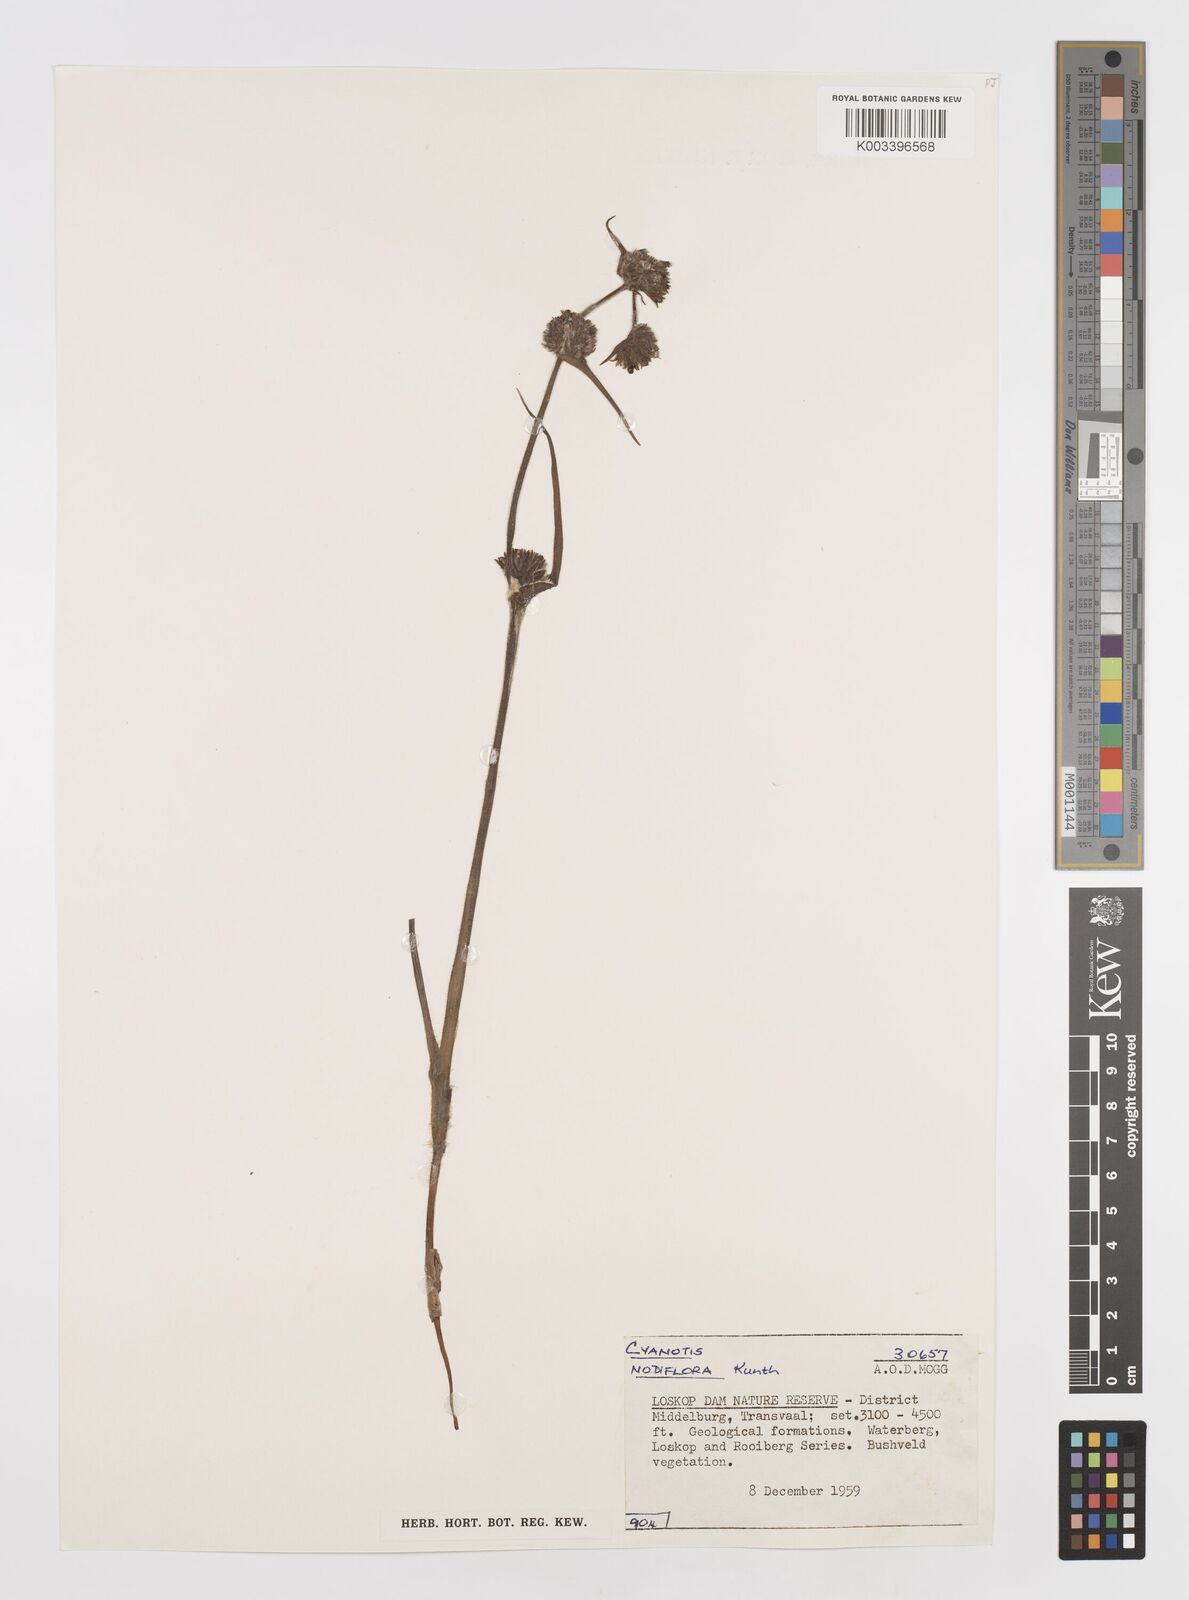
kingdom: Plantae
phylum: Tracheophyta
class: Liliopsida
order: Commelinales
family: Commelinaceae
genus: Cyanotis
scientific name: Cyanotis speciosa
